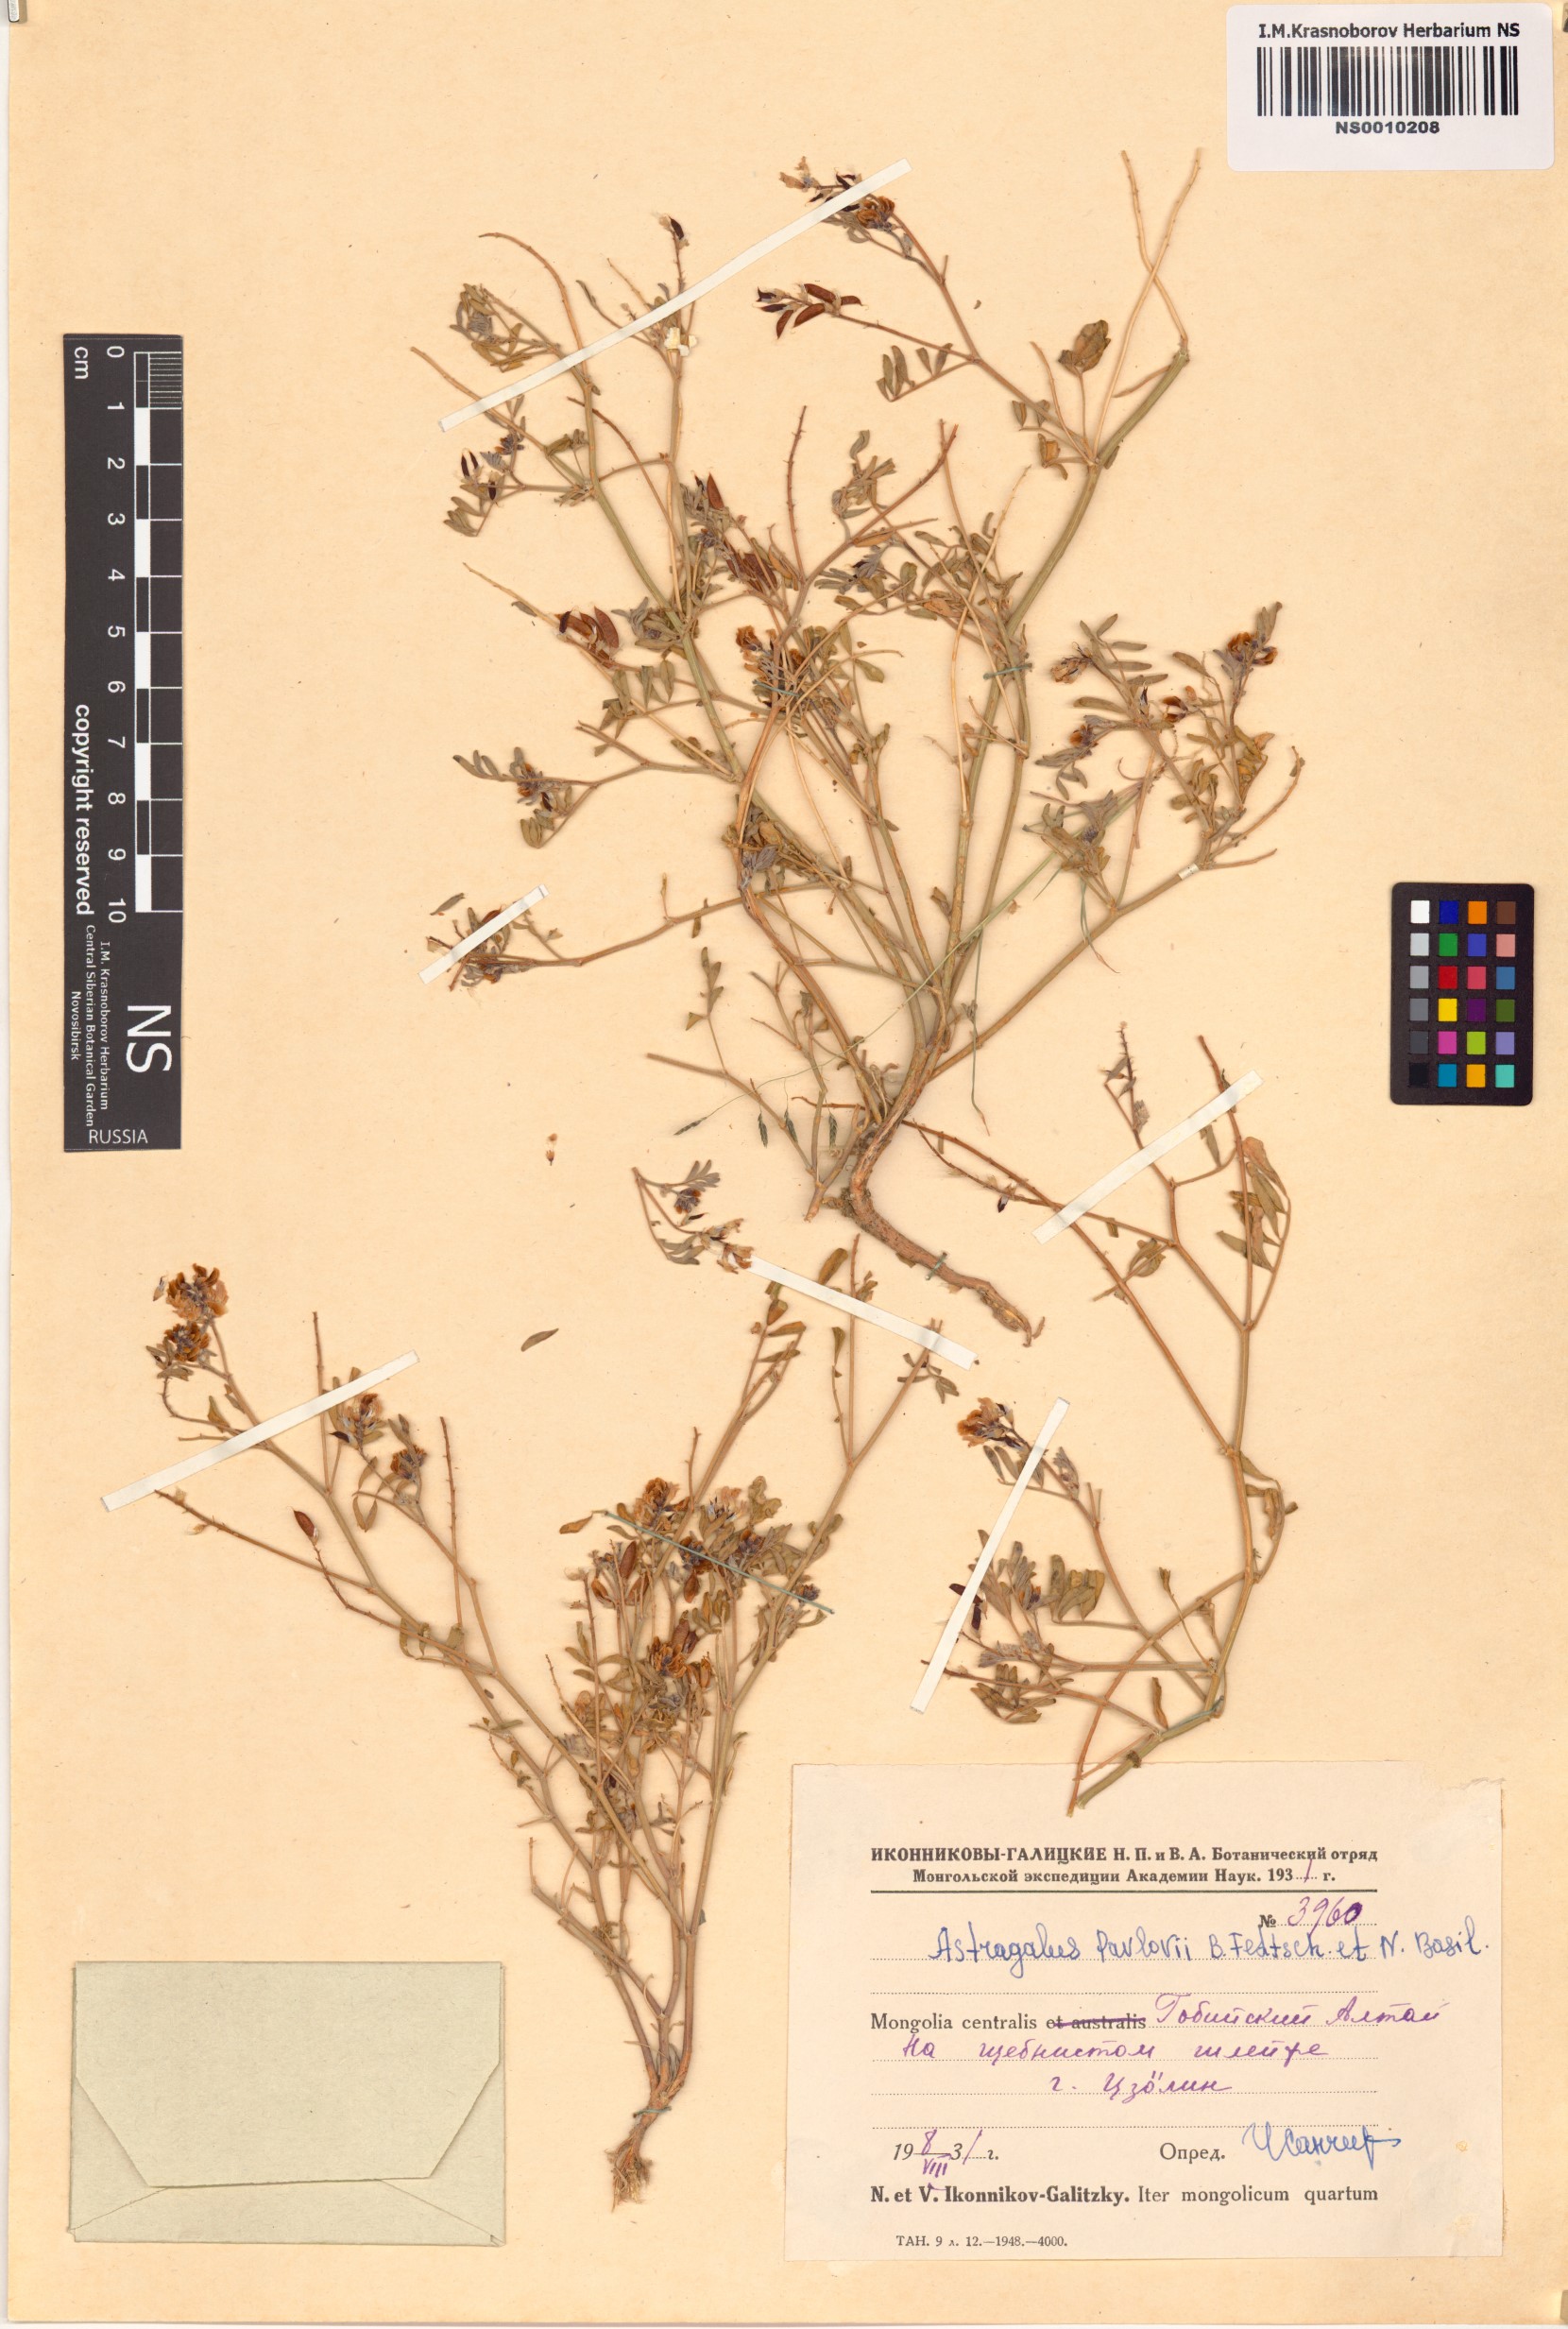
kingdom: Plantae
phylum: Tracheophyta
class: Magnoliopsida
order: Fabales
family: Fabaceae
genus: Astragalus
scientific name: Astragalus pavlovii
